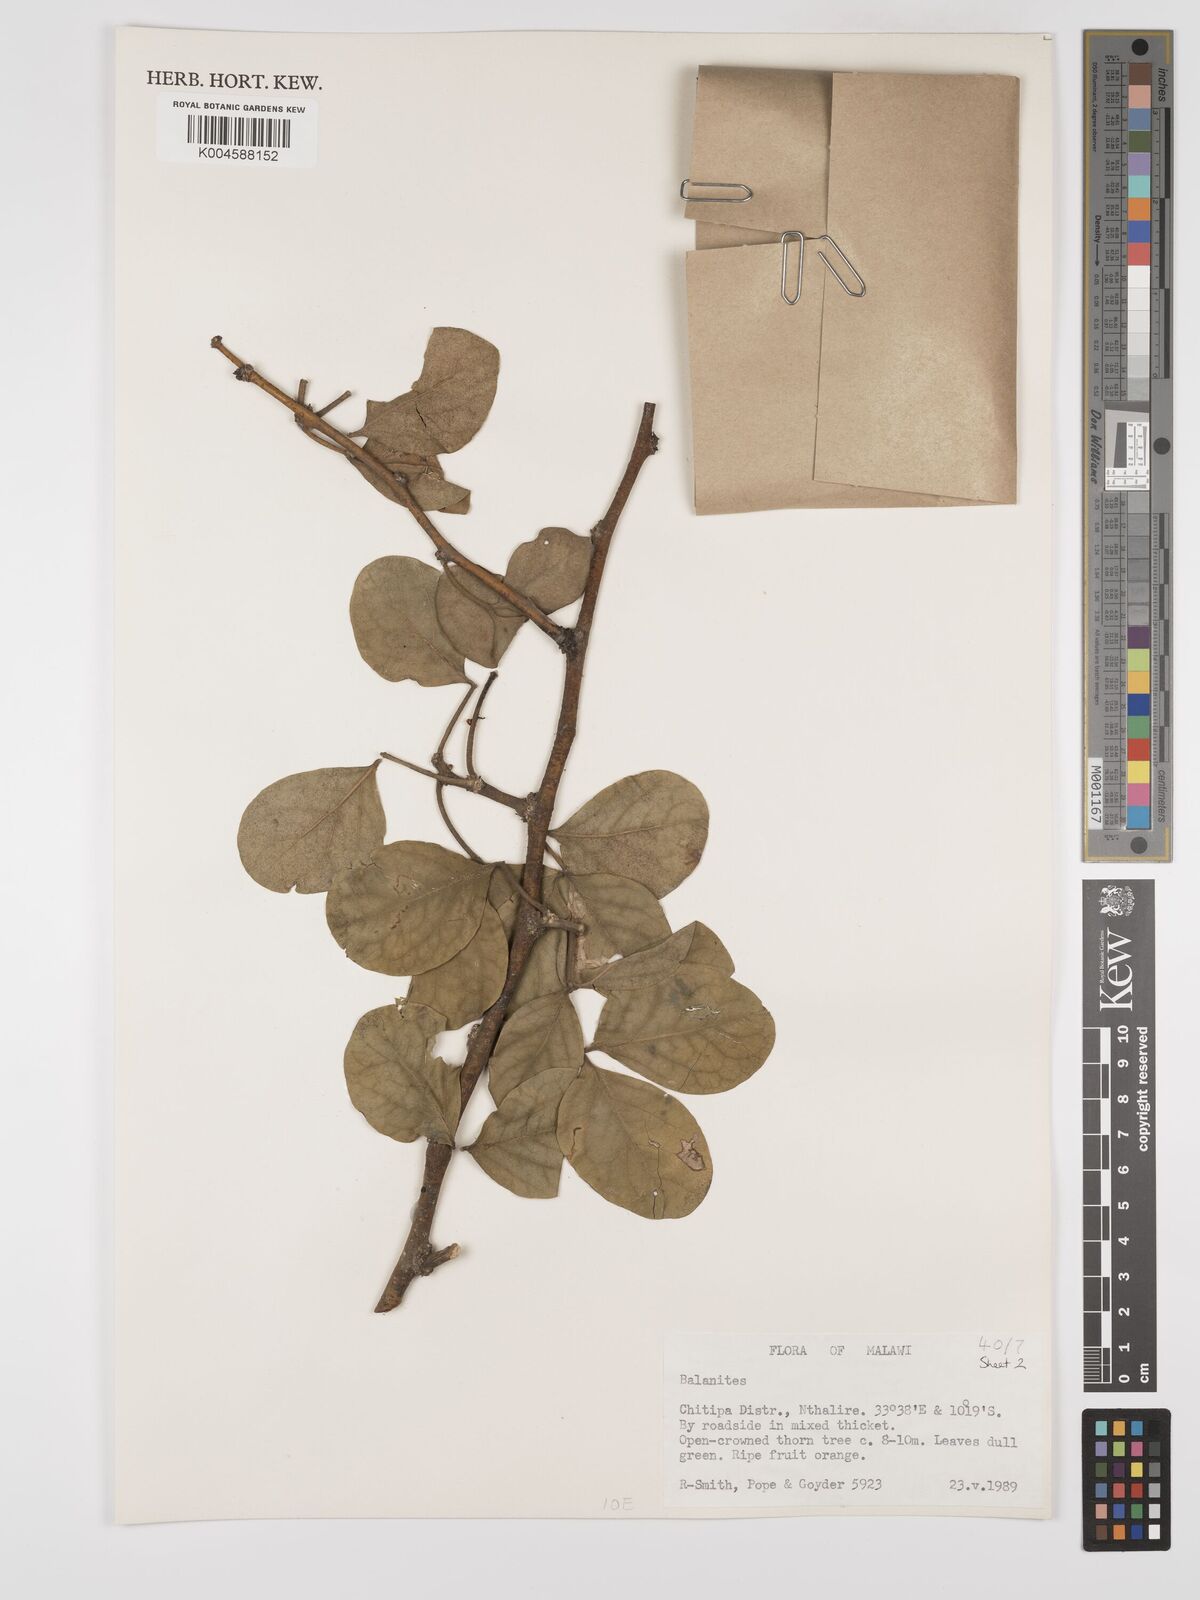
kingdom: Plantae
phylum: Tracheophyta
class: Magnoliopsida
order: Zygophyllales
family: Zygophyllaceae
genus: Balanites
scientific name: Balanites
